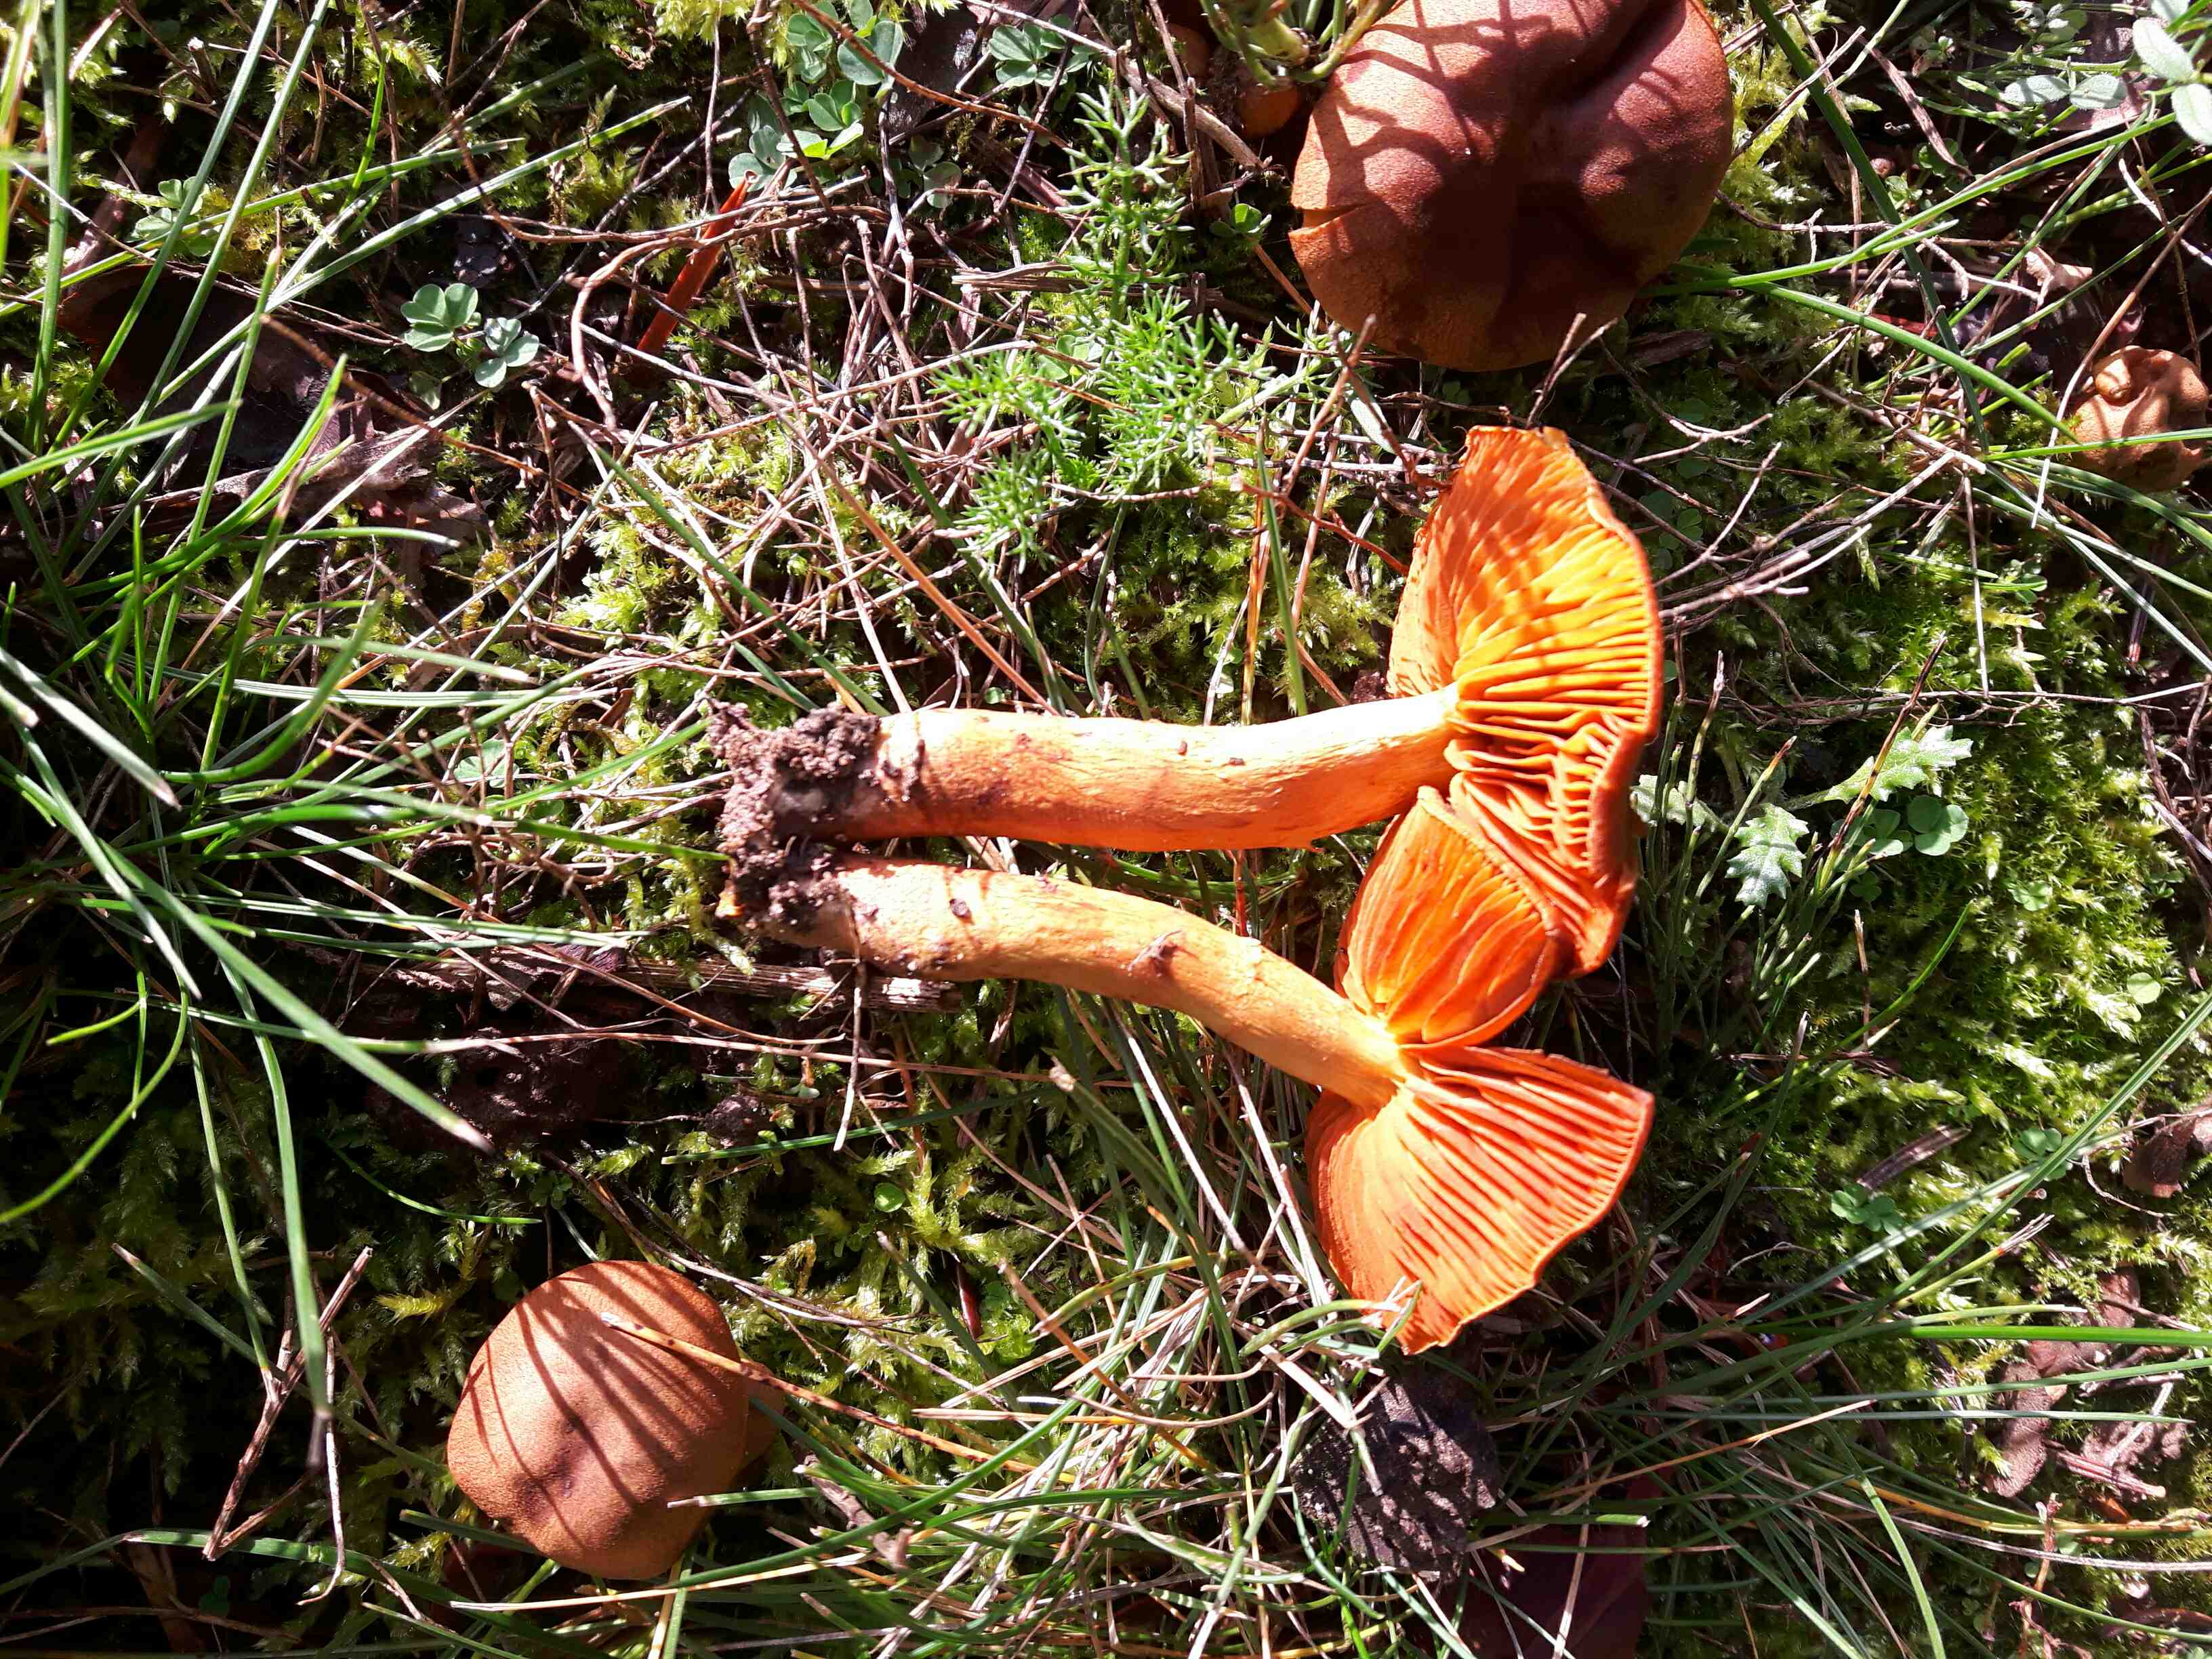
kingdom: Fungi
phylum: Basidiomycota
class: Agaricomycetes
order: Agaricales
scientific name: Agaricales
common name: champignonordenen
